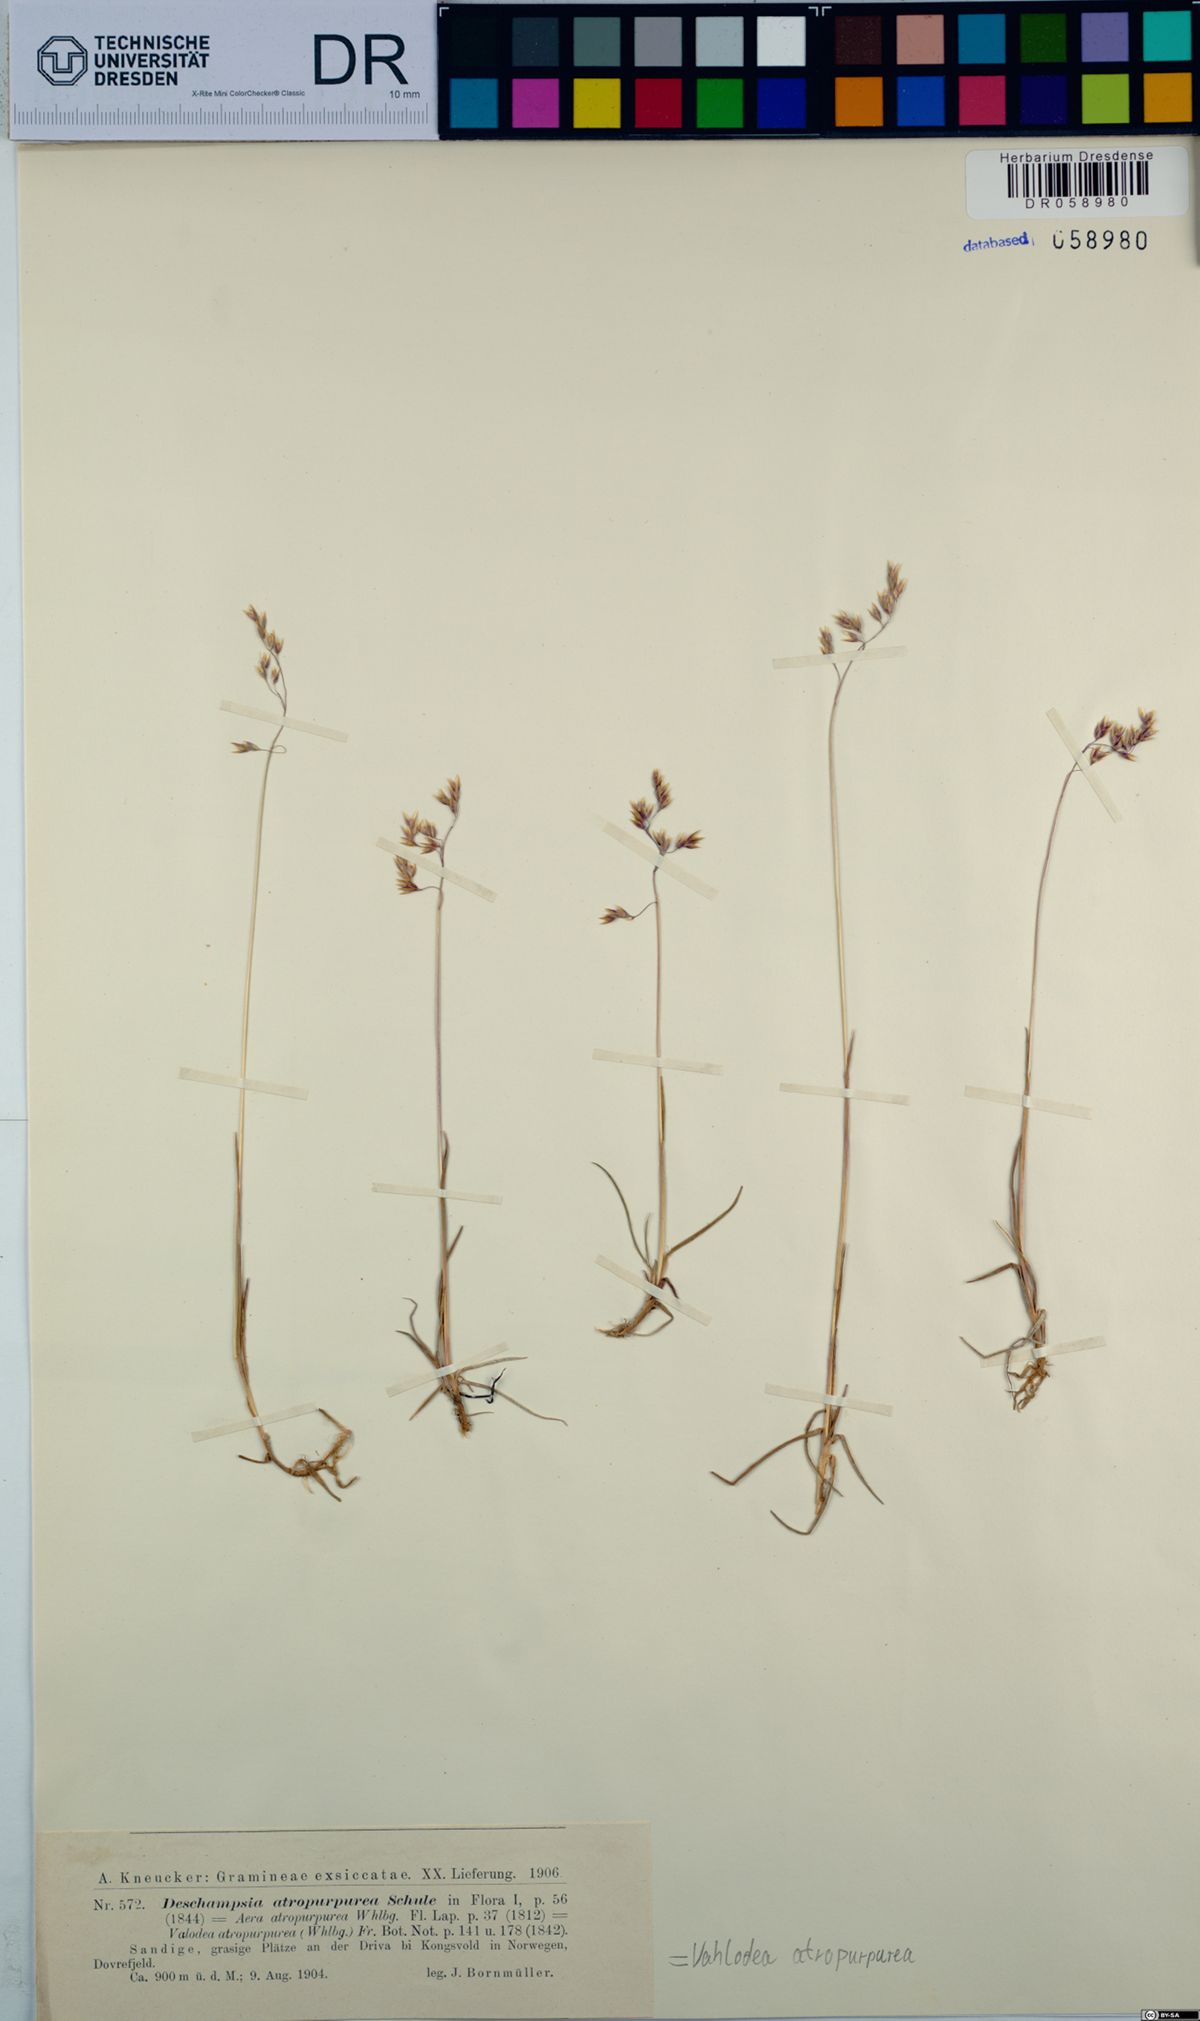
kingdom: Plantae
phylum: Tracheophyta
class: Liliopsida
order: Poales
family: Poaceae
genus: Vahlodea
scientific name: Vahlodea atropurpurea
